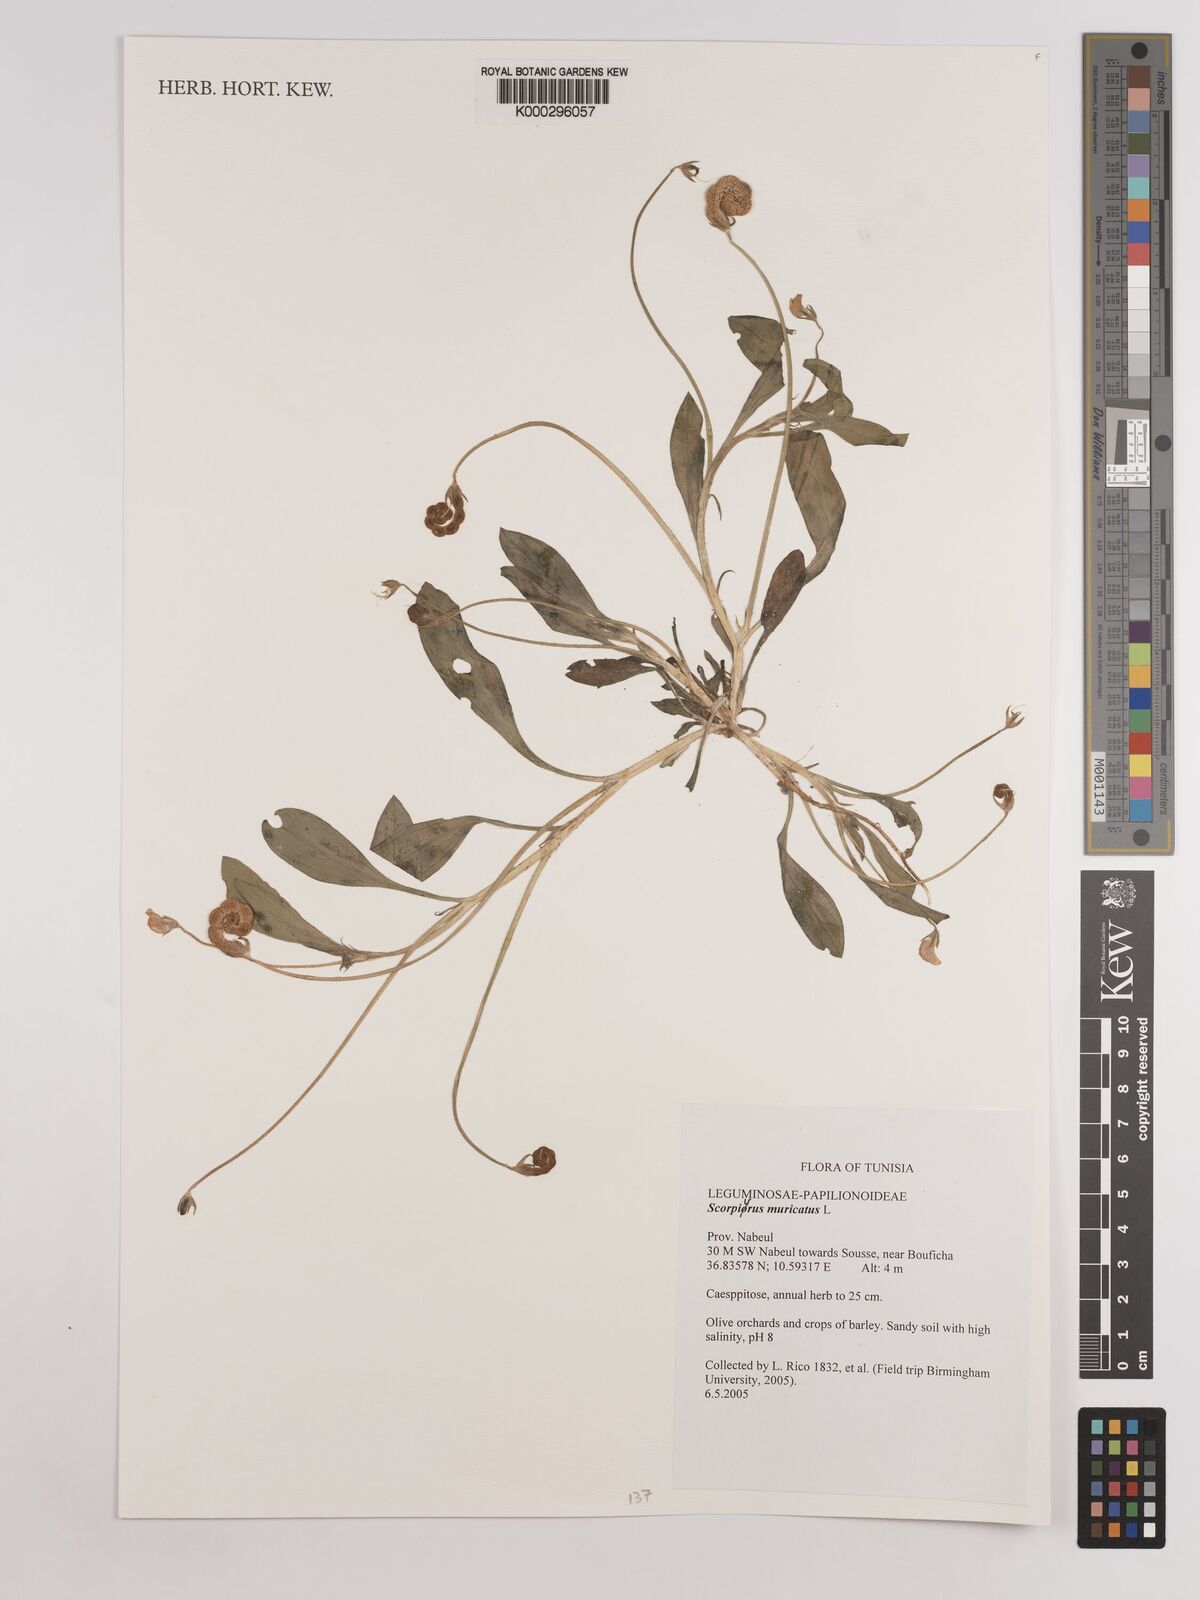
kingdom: Plantae
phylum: Tracheophyta
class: Magnoliopsida
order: Fabales
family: Fabaceae
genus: Scorpiurus
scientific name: Scorpiurus muricatus
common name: Caterpillar-plant
